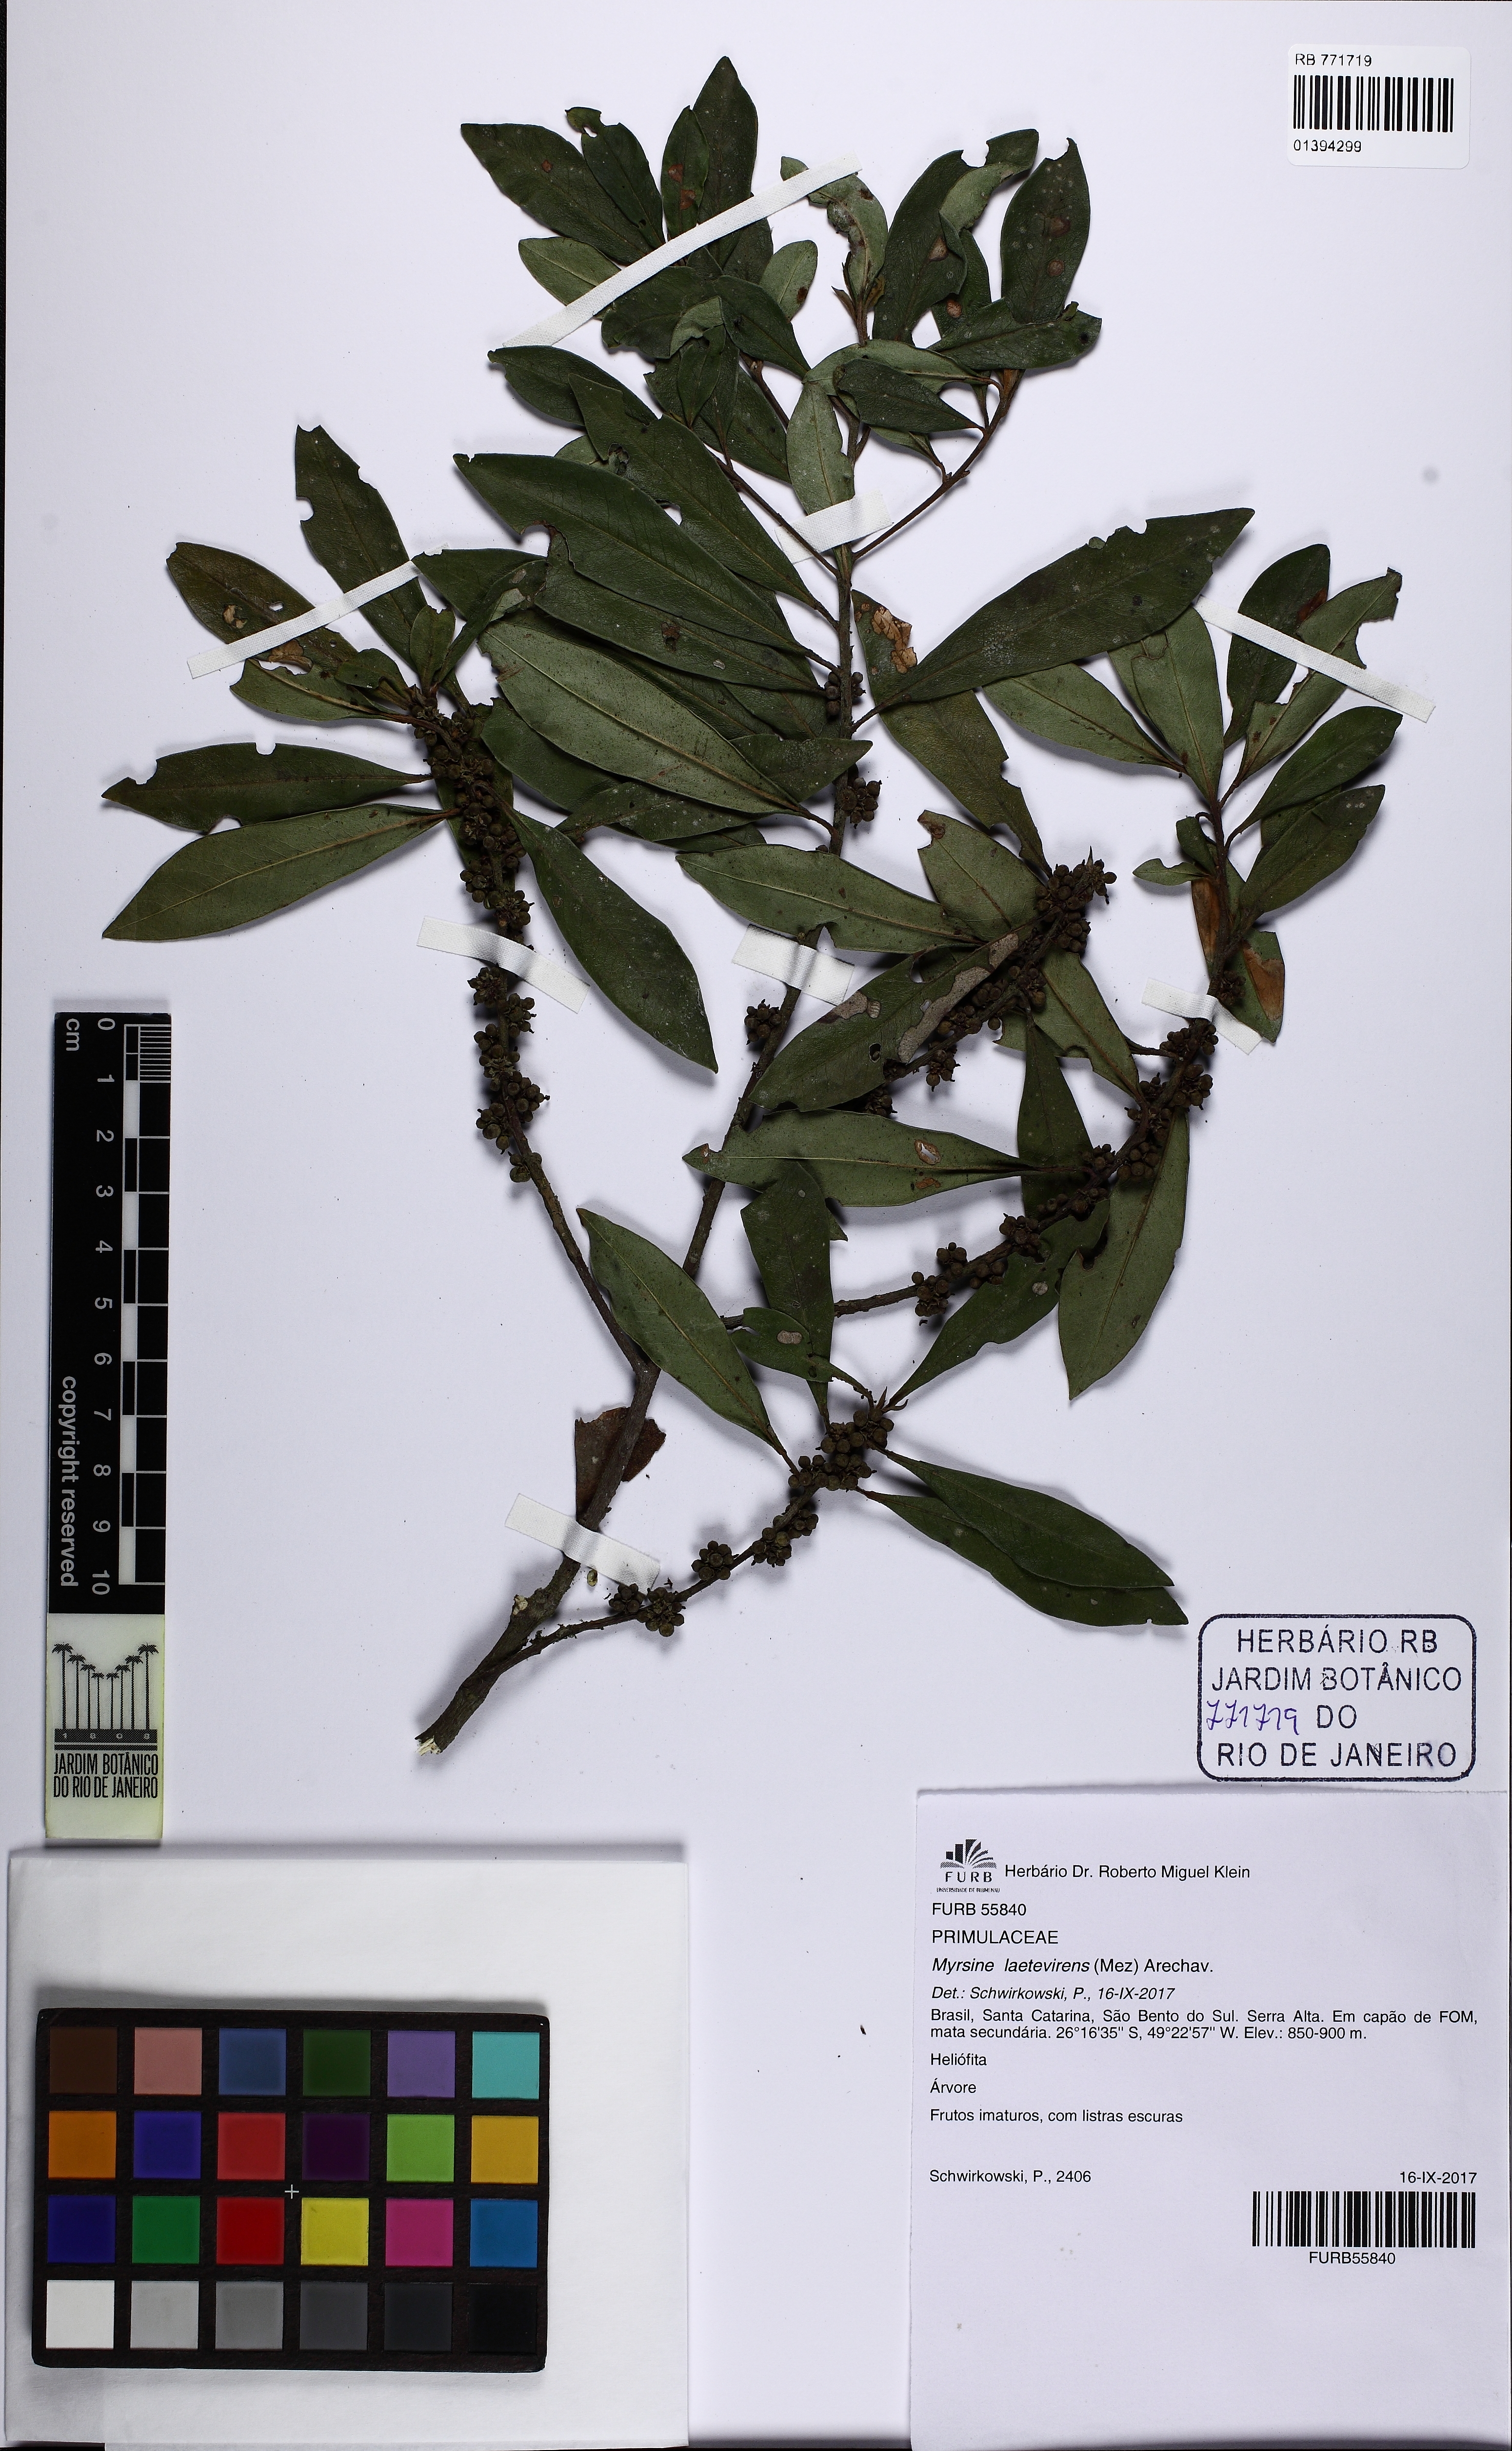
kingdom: Plantae
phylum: Tracheophyta
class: Magnoliopsida
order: Ericales
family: Primulaceae
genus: Myrsine
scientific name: Myrsine laetevirens
